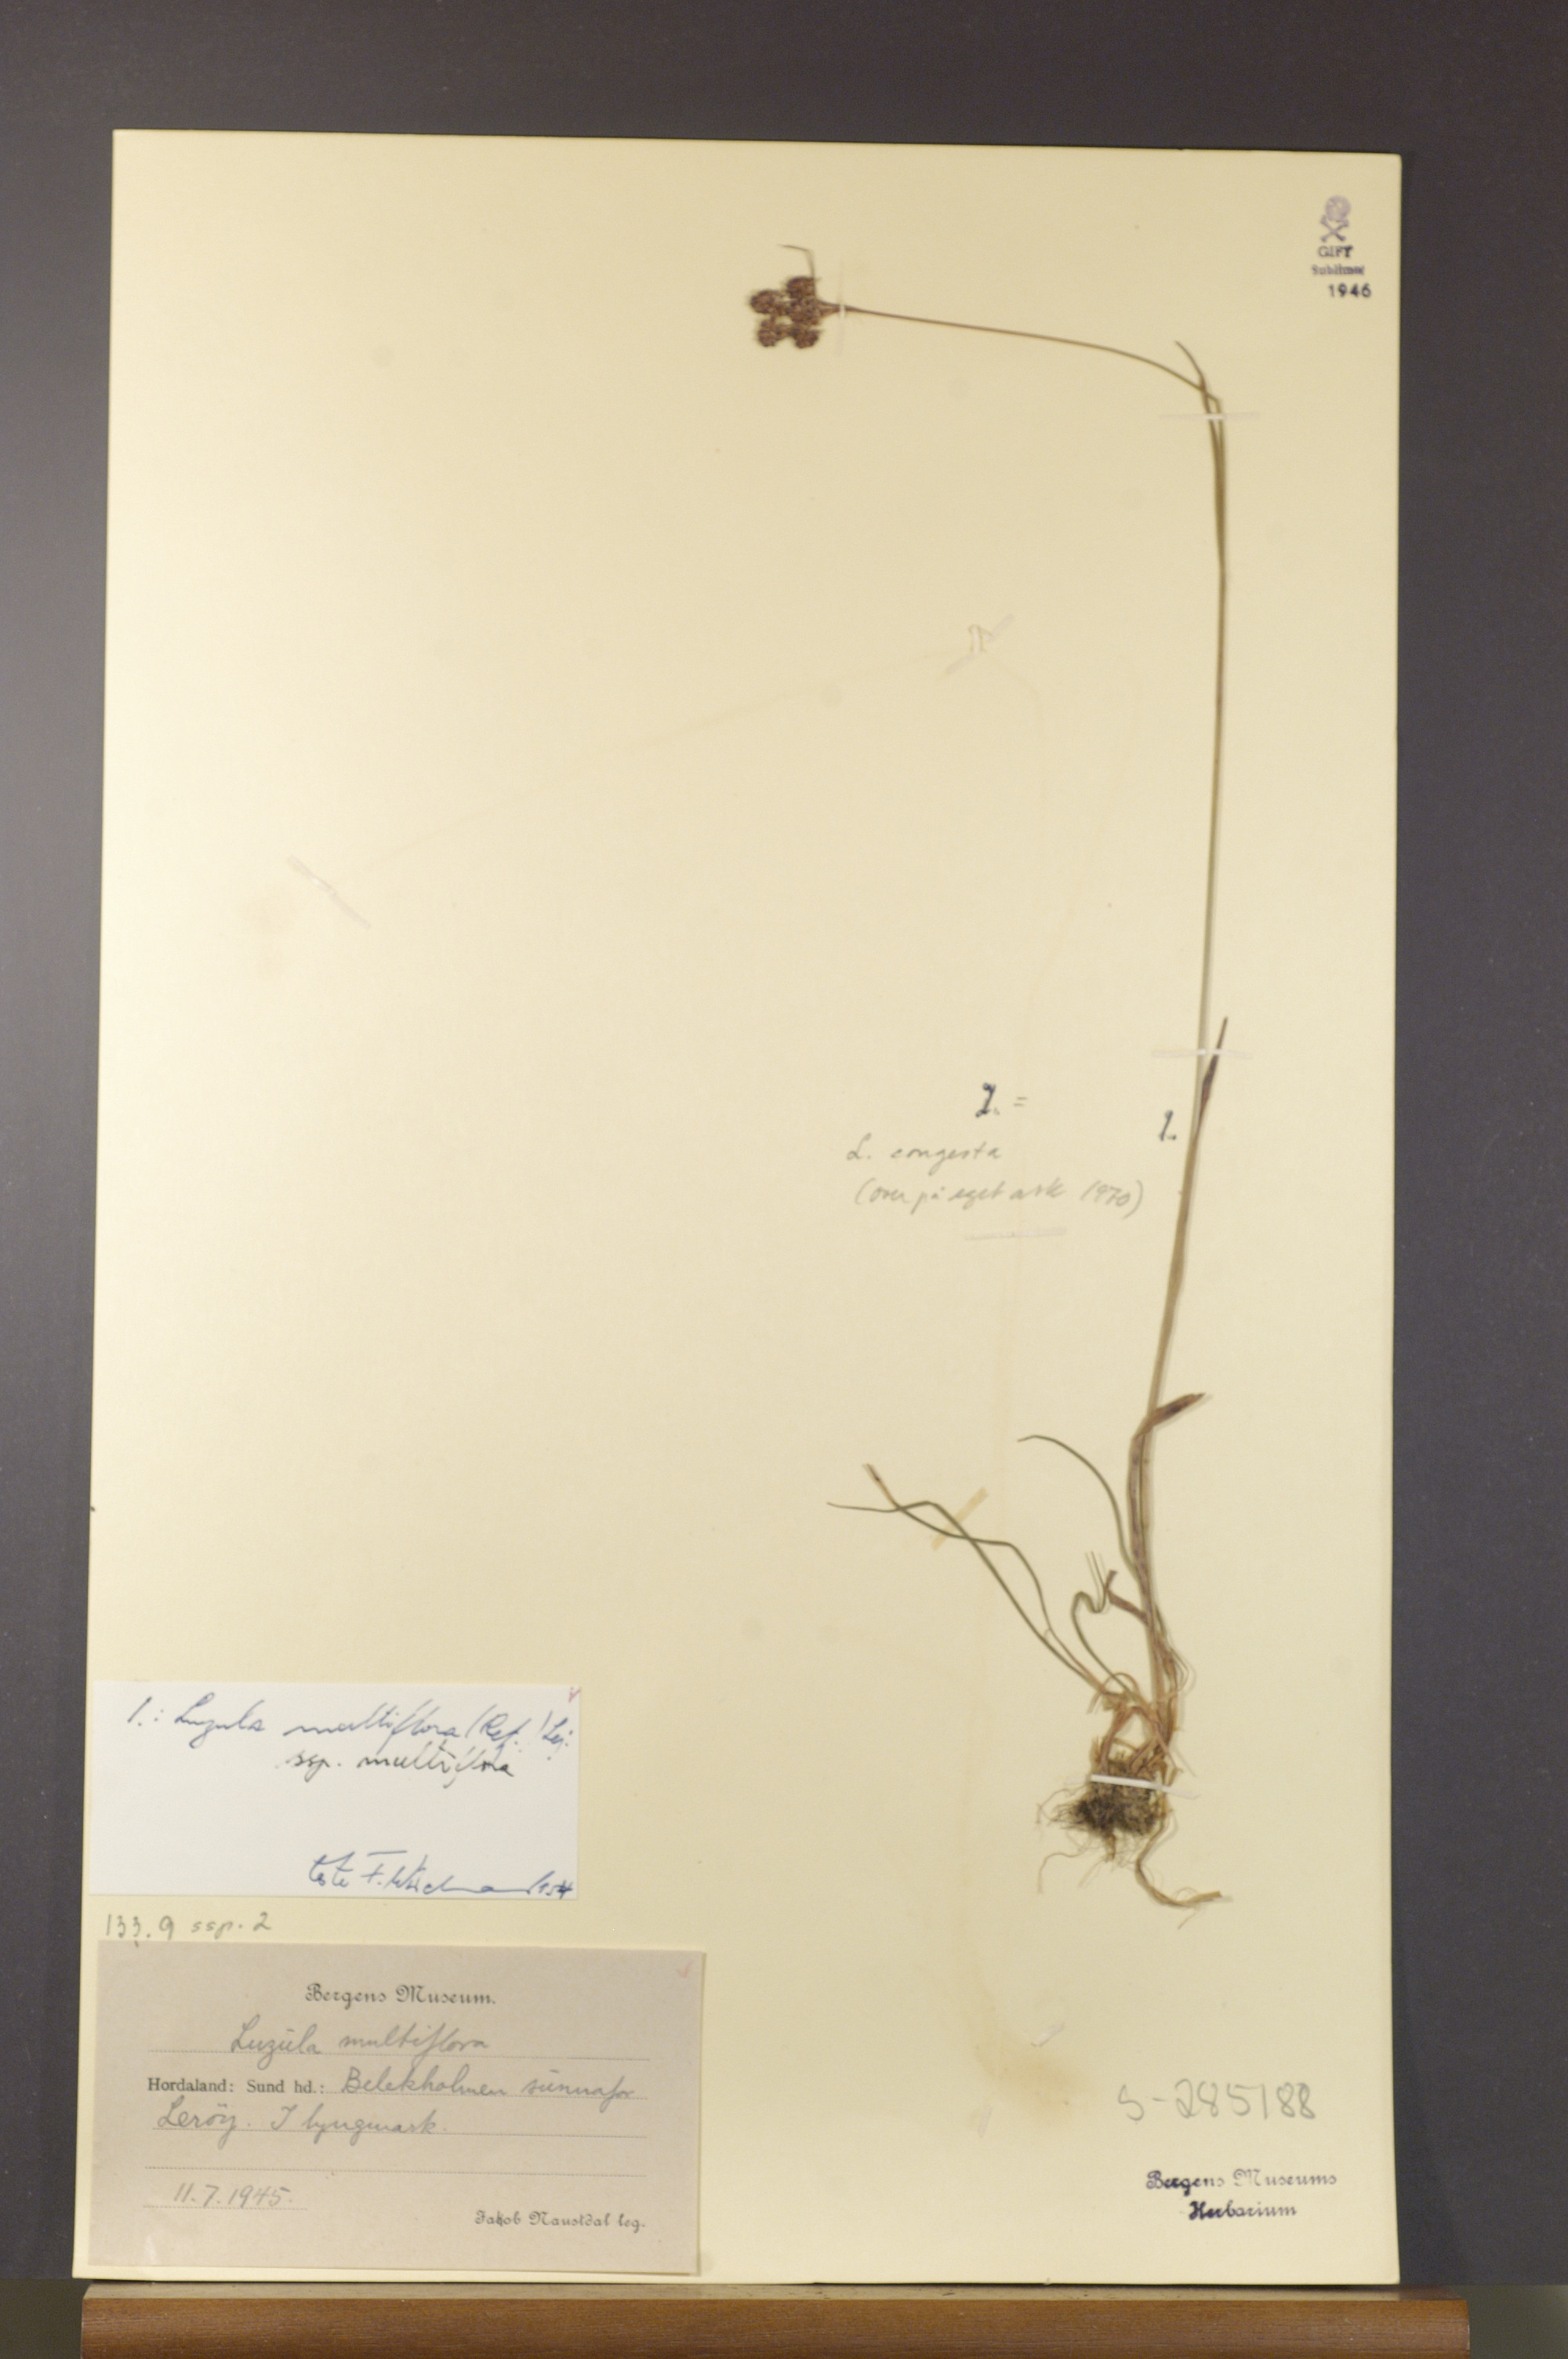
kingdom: Plantae
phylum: Tracheophyta
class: Liliopsida
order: Poales
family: Juncaceae
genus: Luzula
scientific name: Luzula multiflora
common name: Heath wood-rush
